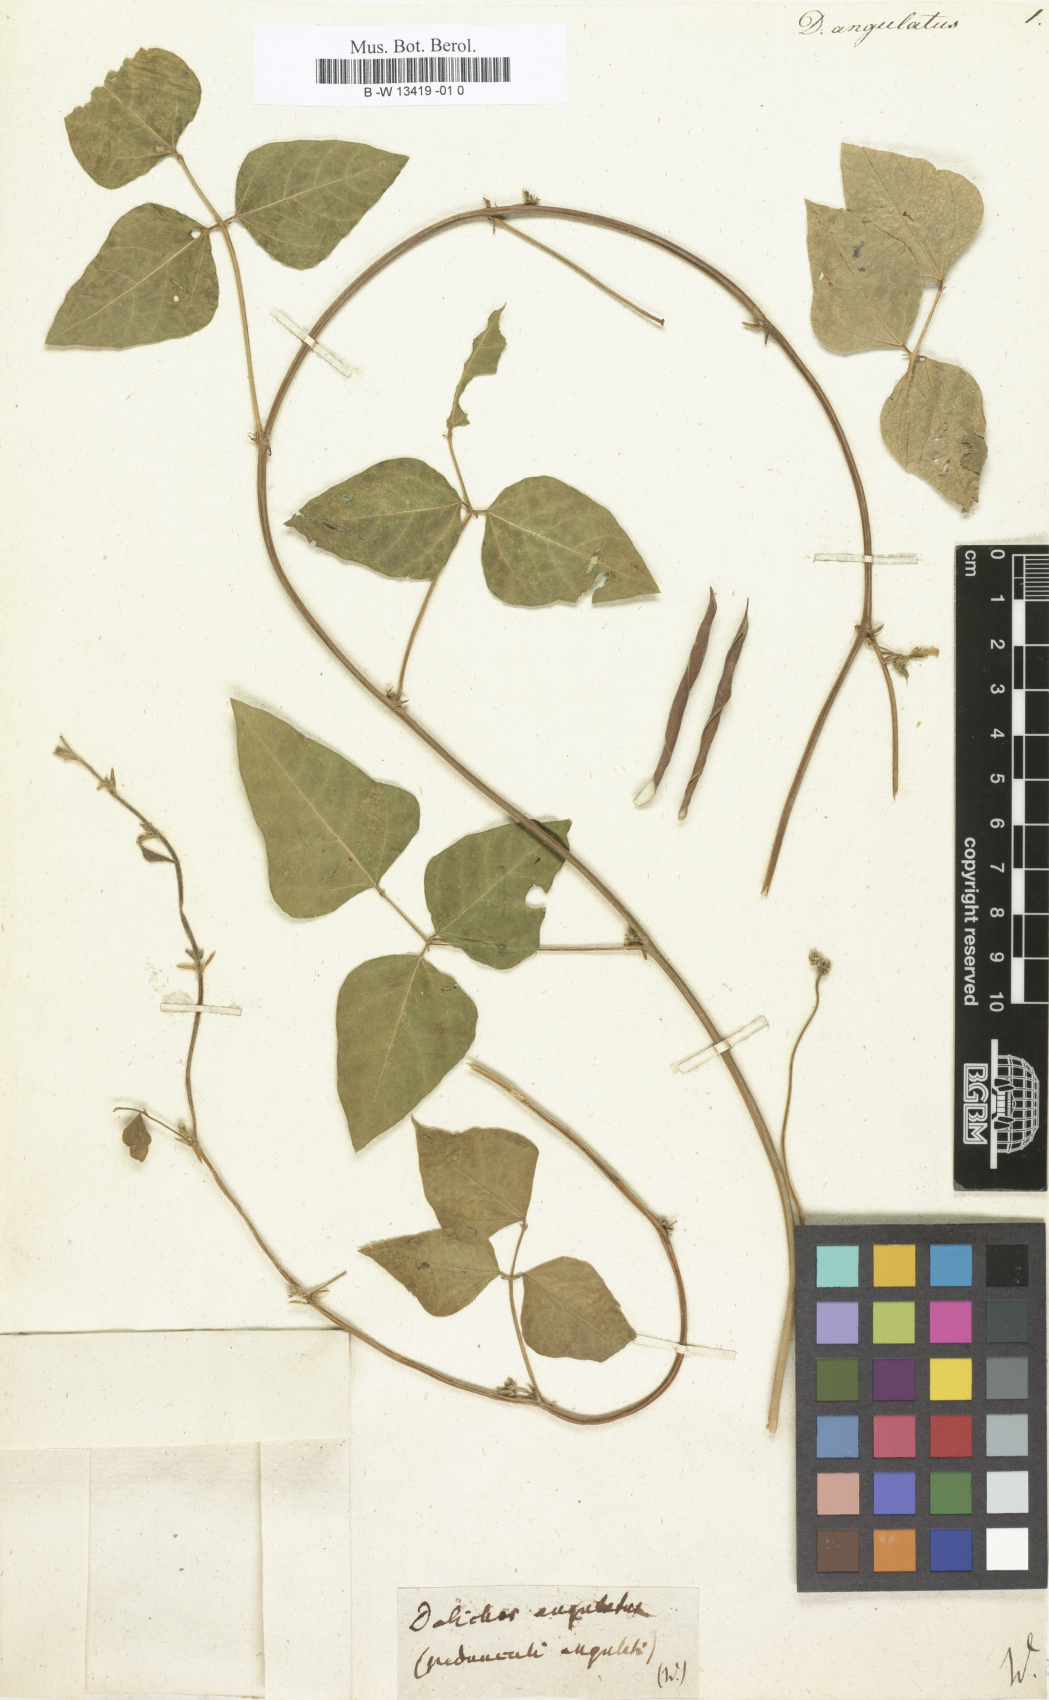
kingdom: Plantae
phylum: Tracheophyta
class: Magnoliopsida
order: Fabales
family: Fabaceae
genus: Vigna
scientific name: Vigna angularis
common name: Adzuki bean
